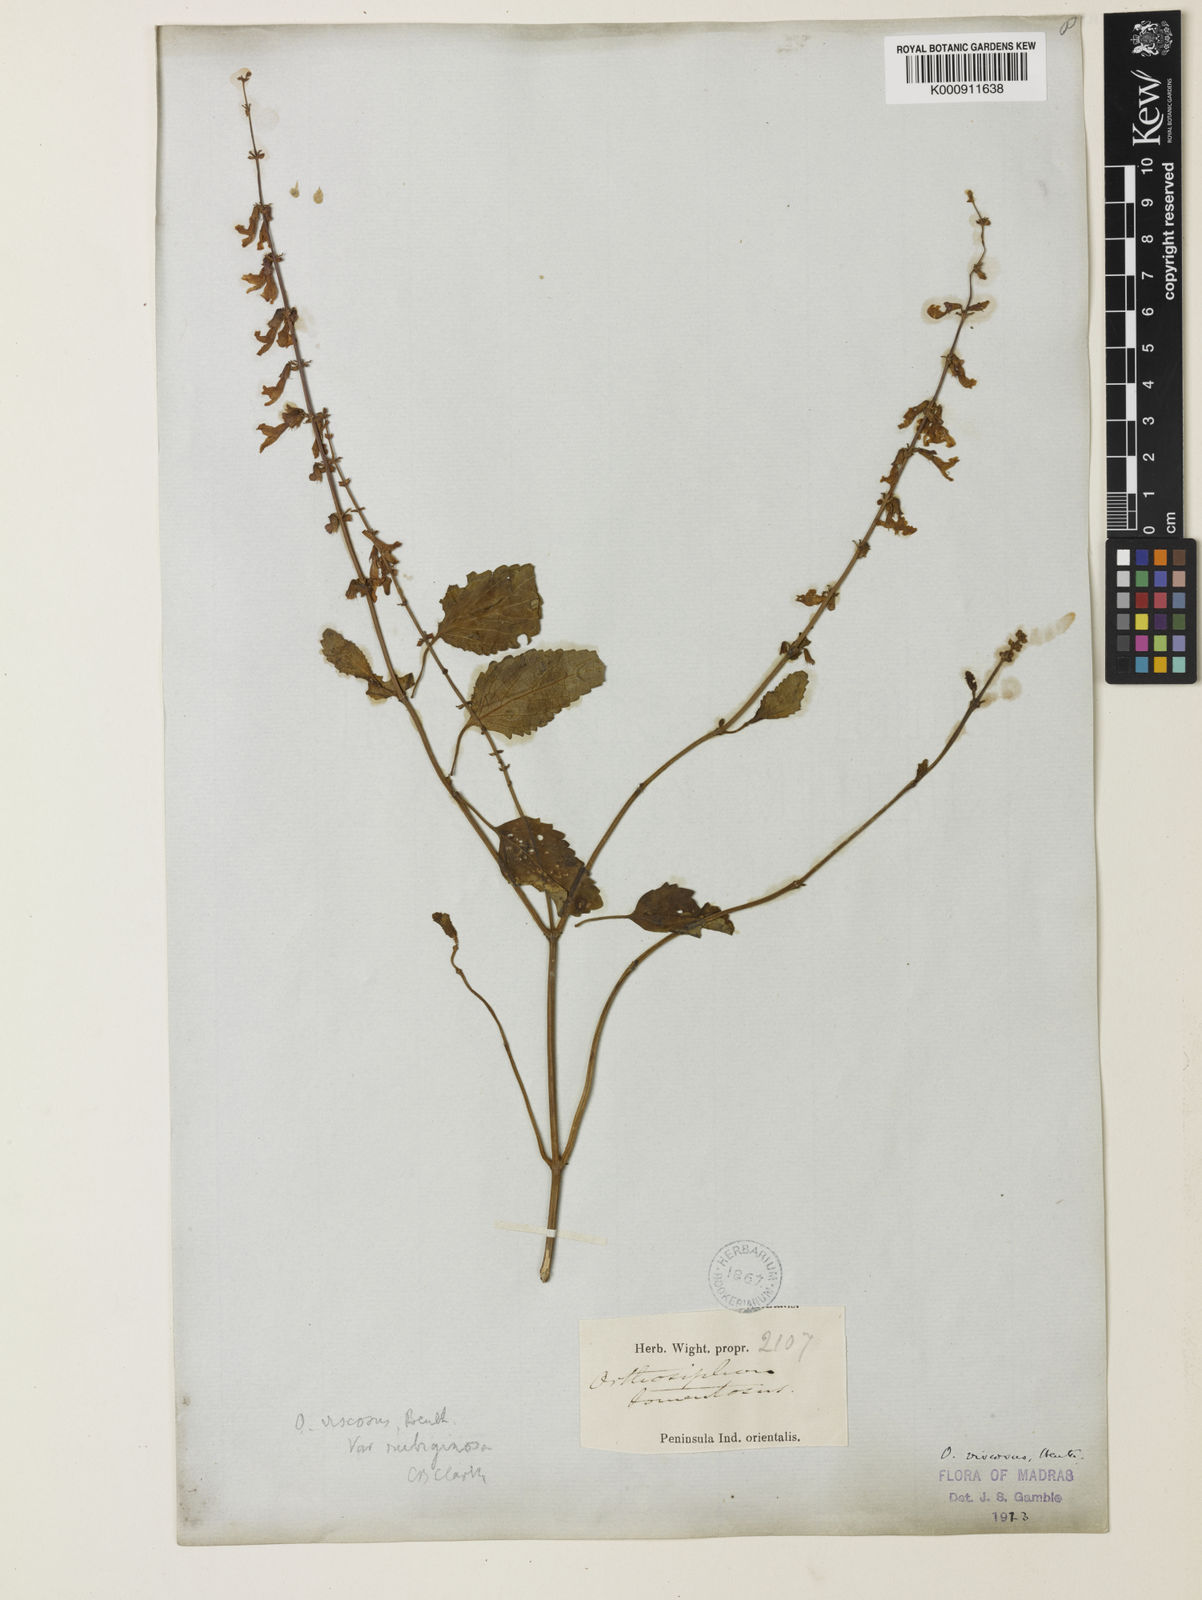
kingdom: Plantae
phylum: Tracheophyta
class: Magnoliopsida
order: Lamiales
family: Lamiaceae
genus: Orthosiphon
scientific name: Orthosiphon thymiflorus
